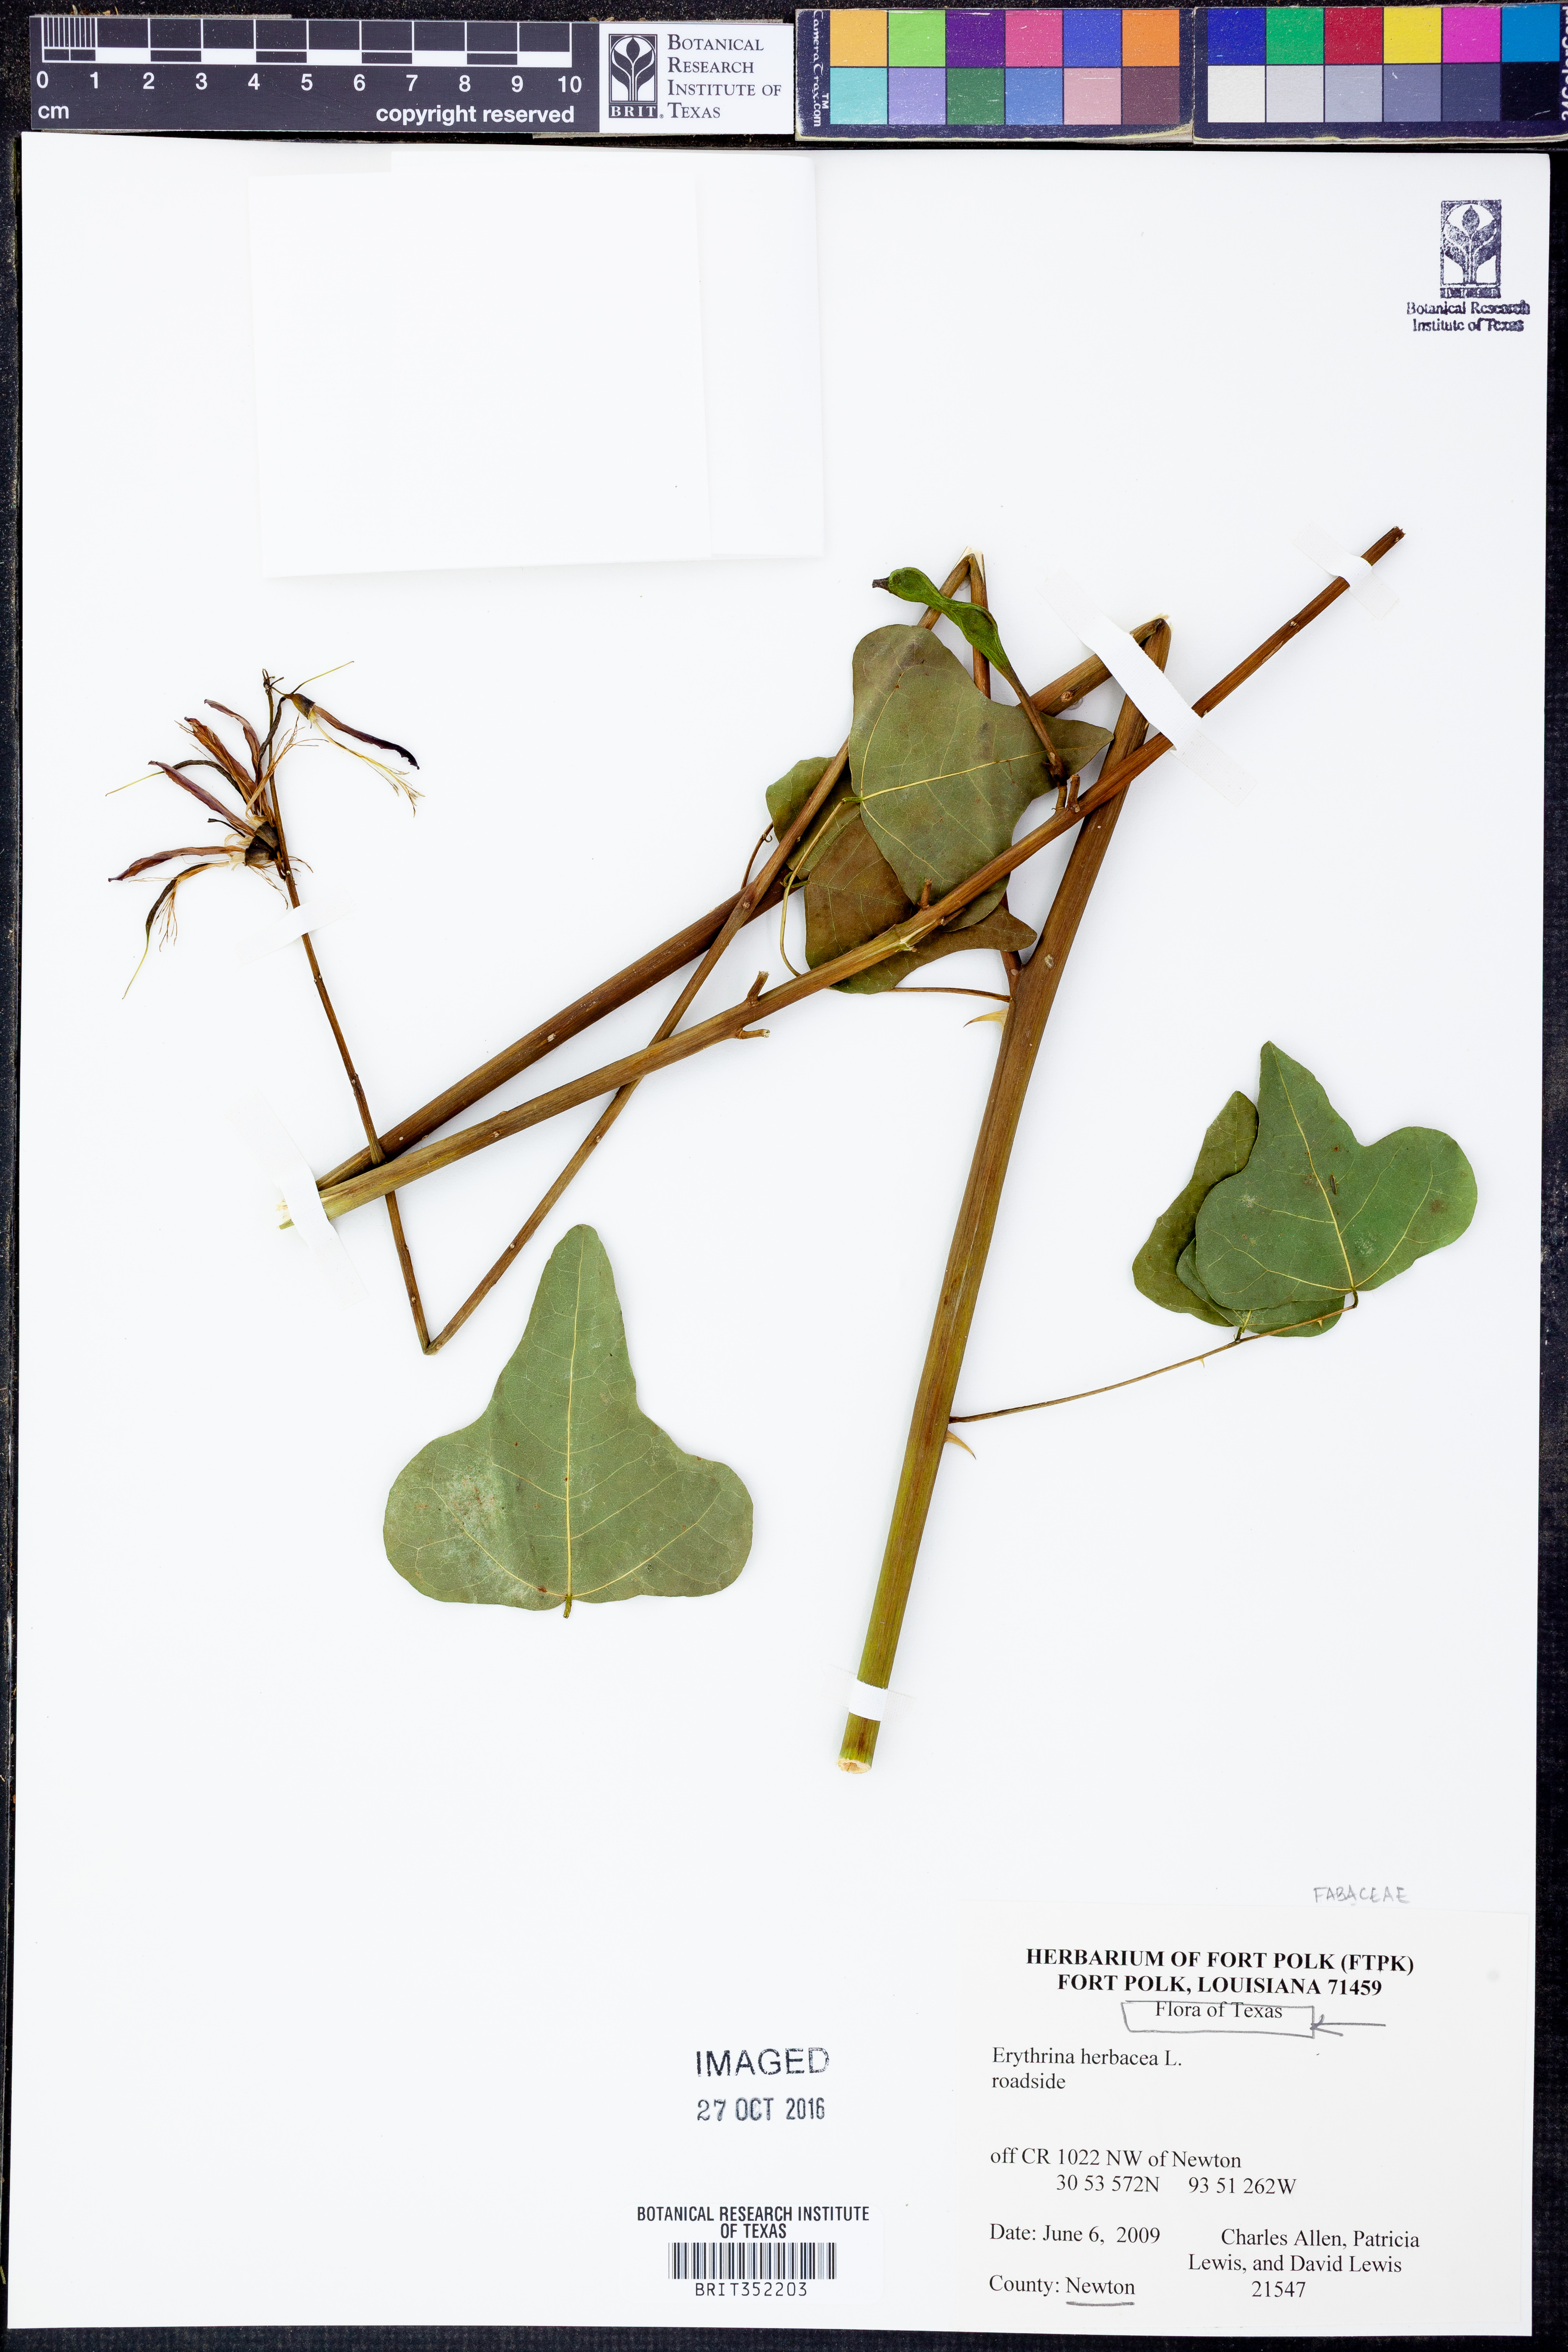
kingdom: Plantae
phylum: Tracheophyta
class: Magnoliopsida
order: Fabales
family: Fabaceae
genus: Erythrina
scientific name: Erythrina herbacea
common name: Coral-bean
